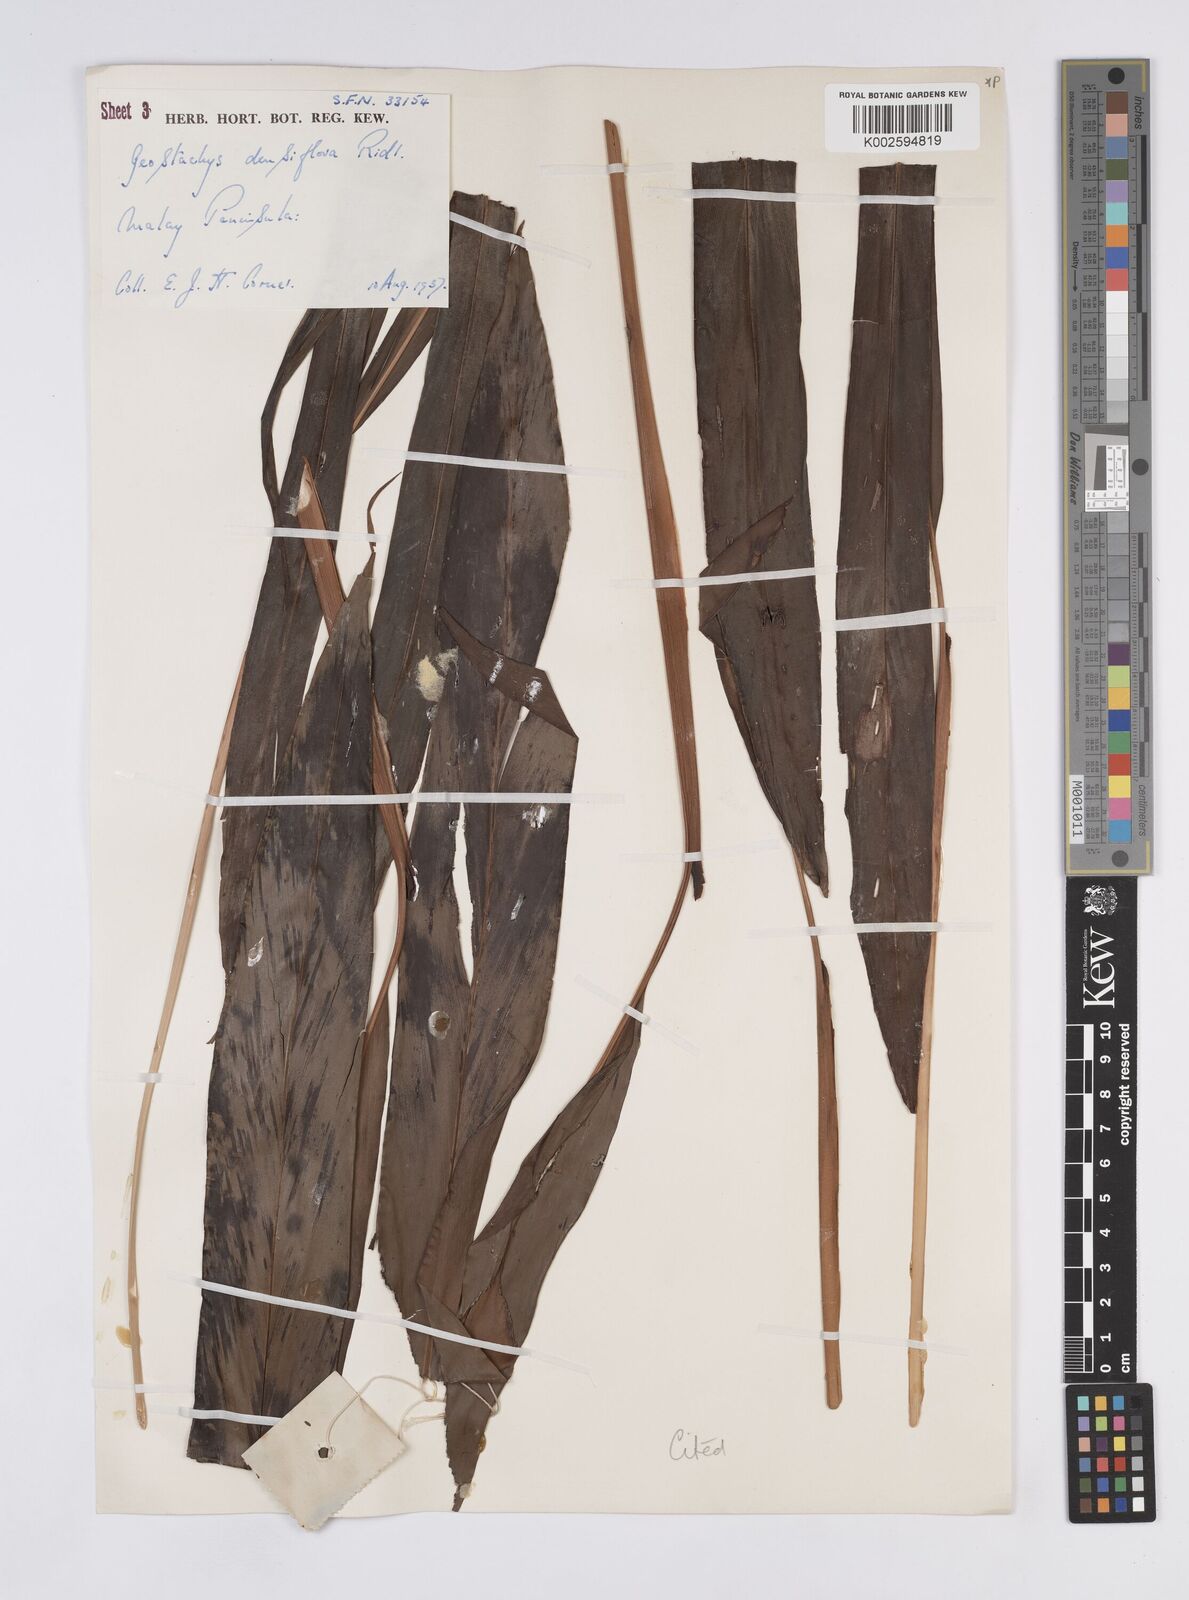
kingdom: Plantae
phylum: Tracheophyta
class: Liliopsida
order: Zingiberales
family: Zingiberaceae
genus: Geostachys
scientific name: Geostachys densiflora
